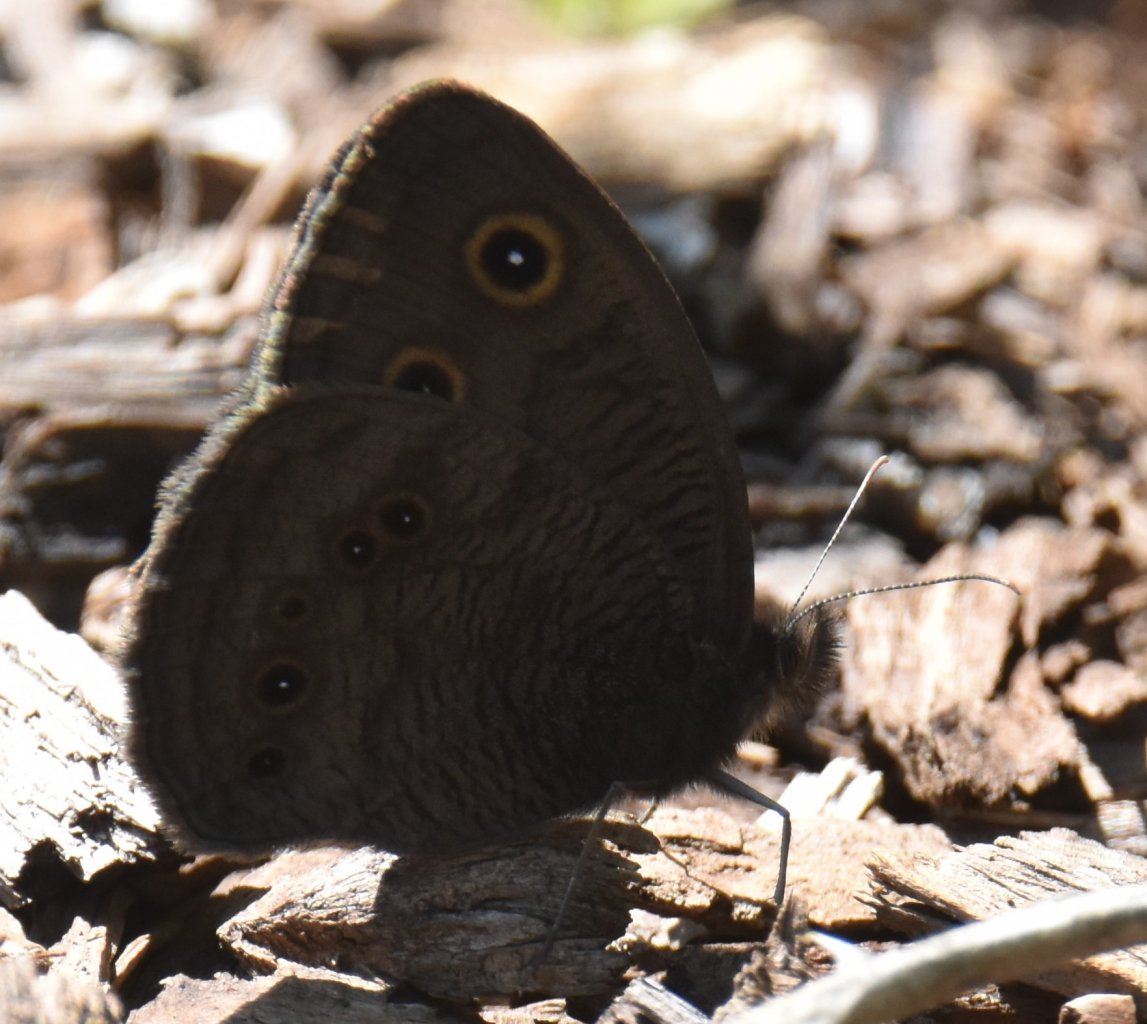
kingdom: Animalia
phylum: Arthropoda
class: Insecta
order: Lepidoptera
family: Nymphalidae
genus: Cercyonis
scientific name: Cercyonis pegala
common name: Common Wood-Nymph
